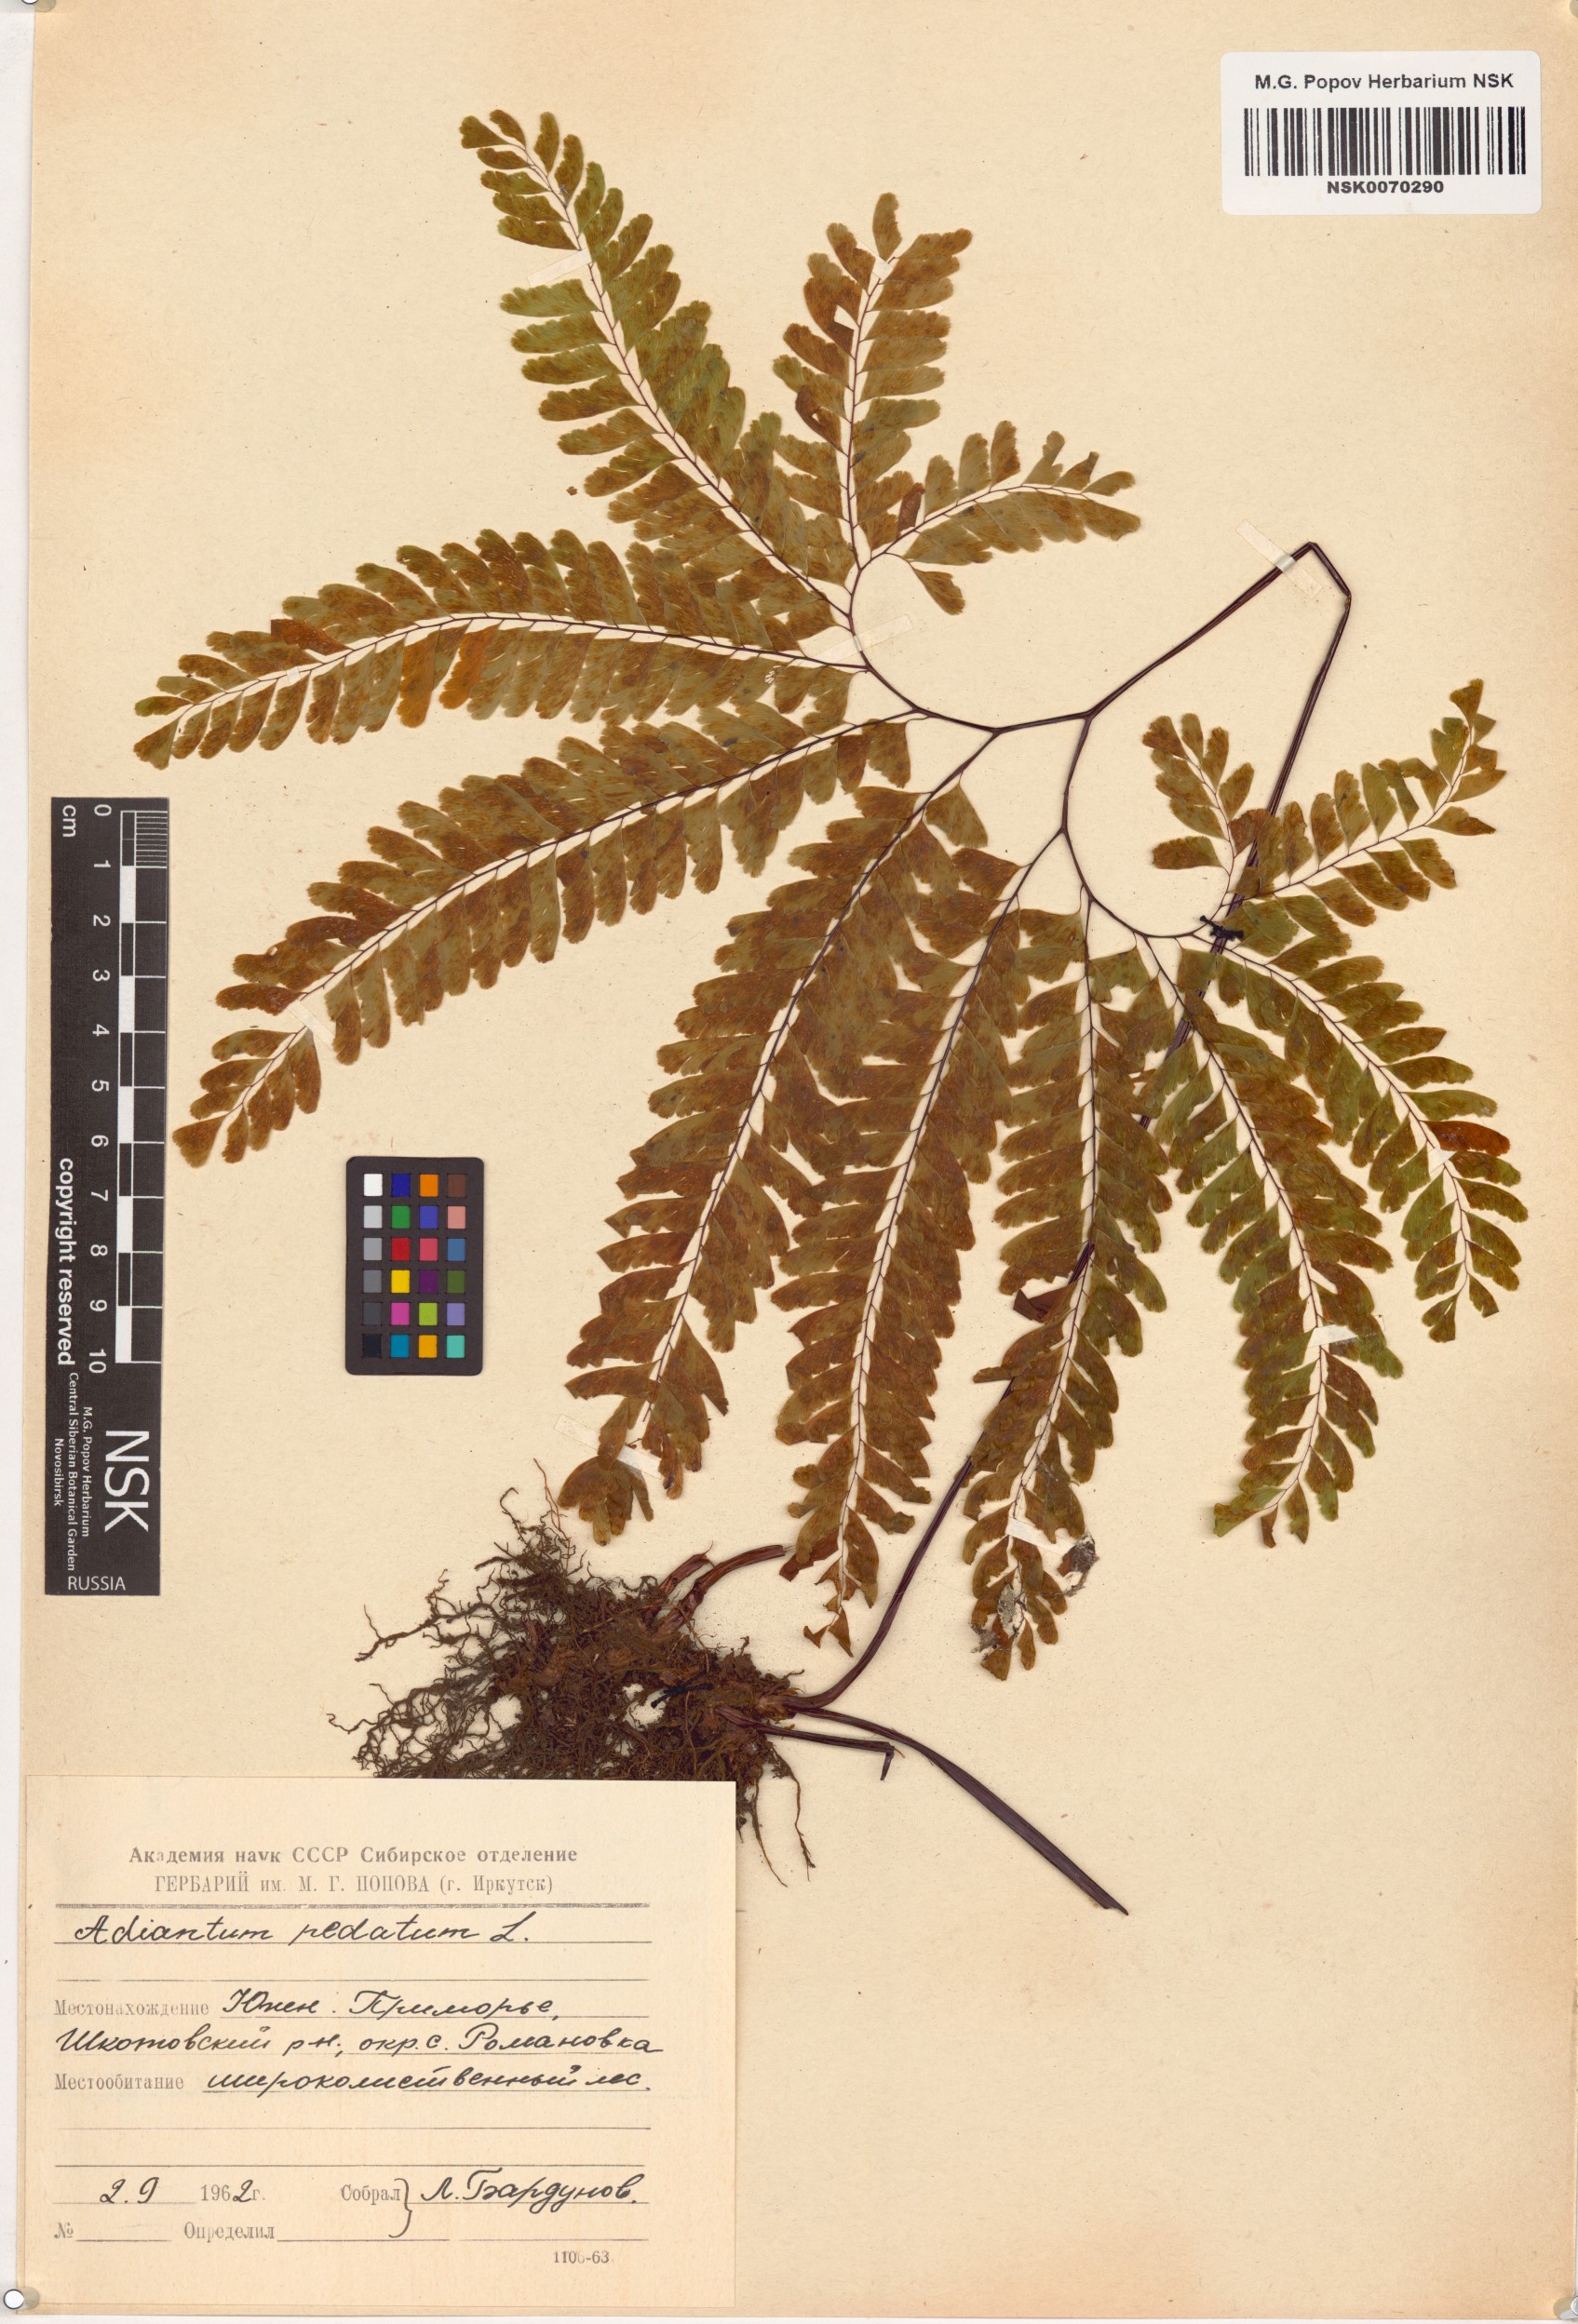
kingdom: Plantae
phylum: Tracheophyta
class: Polypodiopsida
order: Polypodiales
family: Pteridaceae
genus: Adiantum
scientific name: Adiantum pedatum
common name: Five-finger fern
